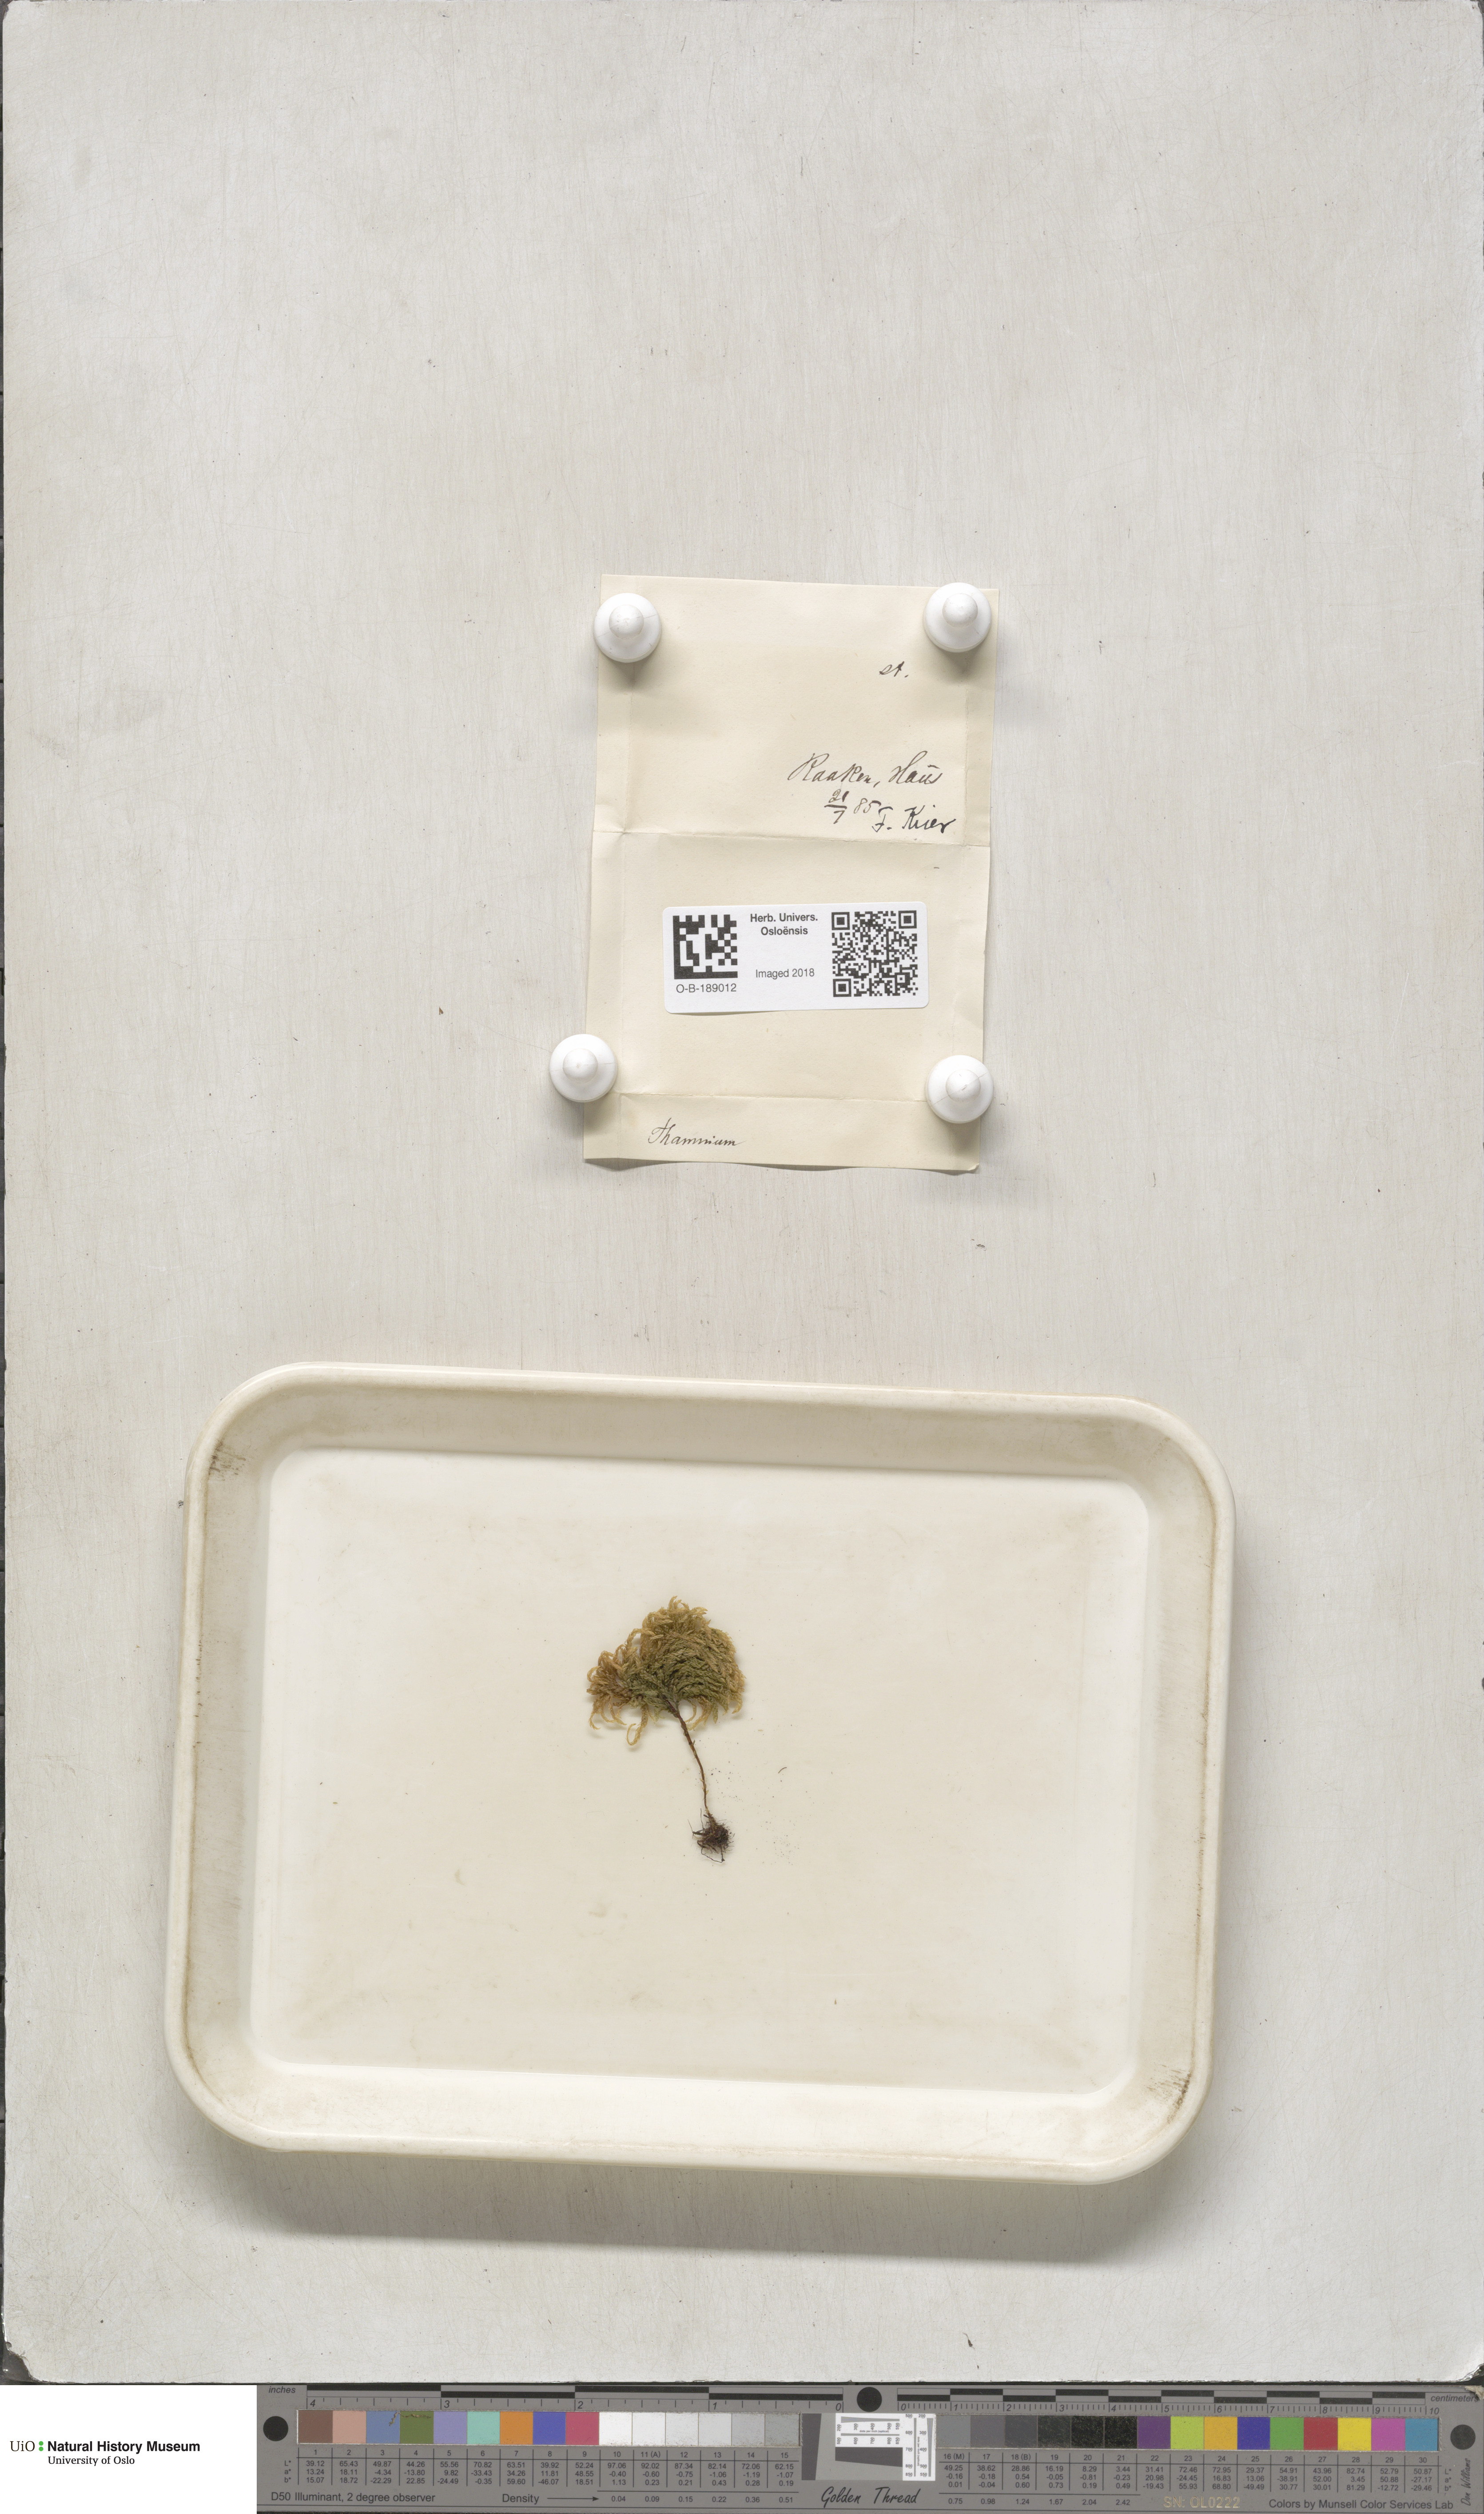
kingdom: Plantae
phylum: Bryophyta
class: Bryopsida
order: Hypnales
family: Neckeraceae
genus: Thamnobryum
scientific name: Thamnobryum alopecurum
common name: Fox-tail feather-moss
